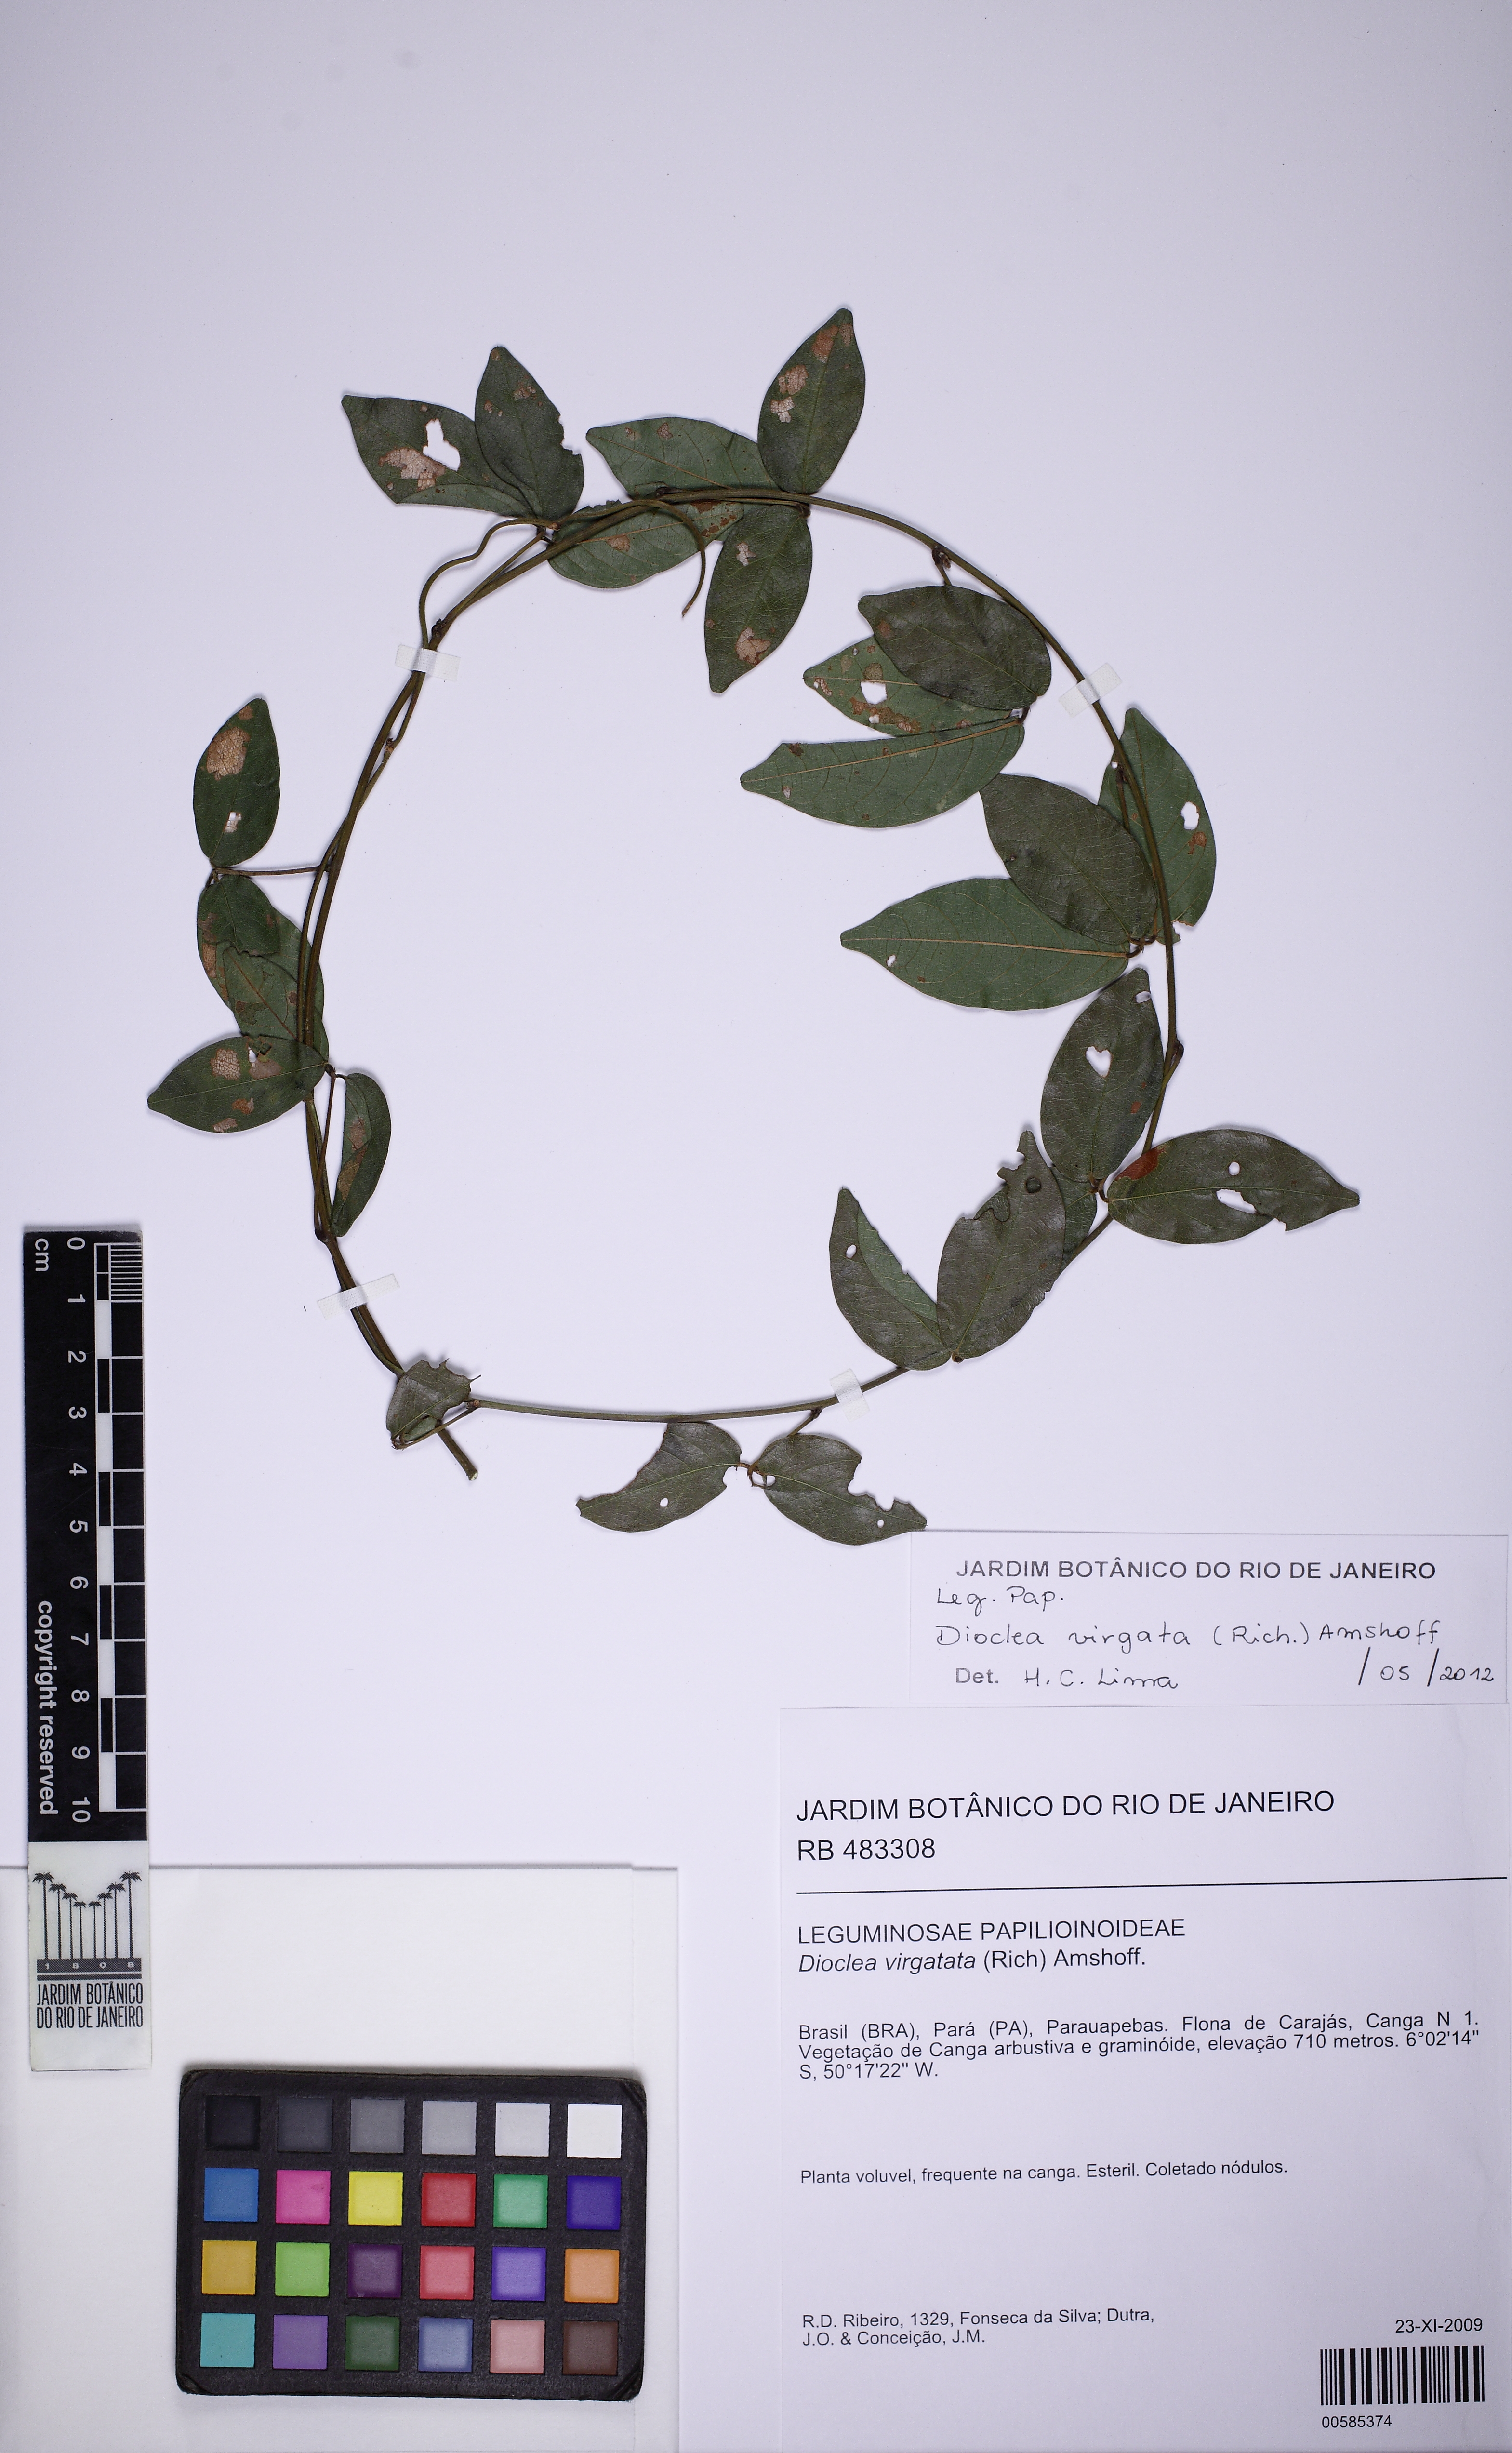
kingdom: Plantae
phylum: Tracheophyta
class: Magnoliopsida
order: Fabales
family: Fabaceae
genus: Dioclea
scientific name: Dioclea apurensis
